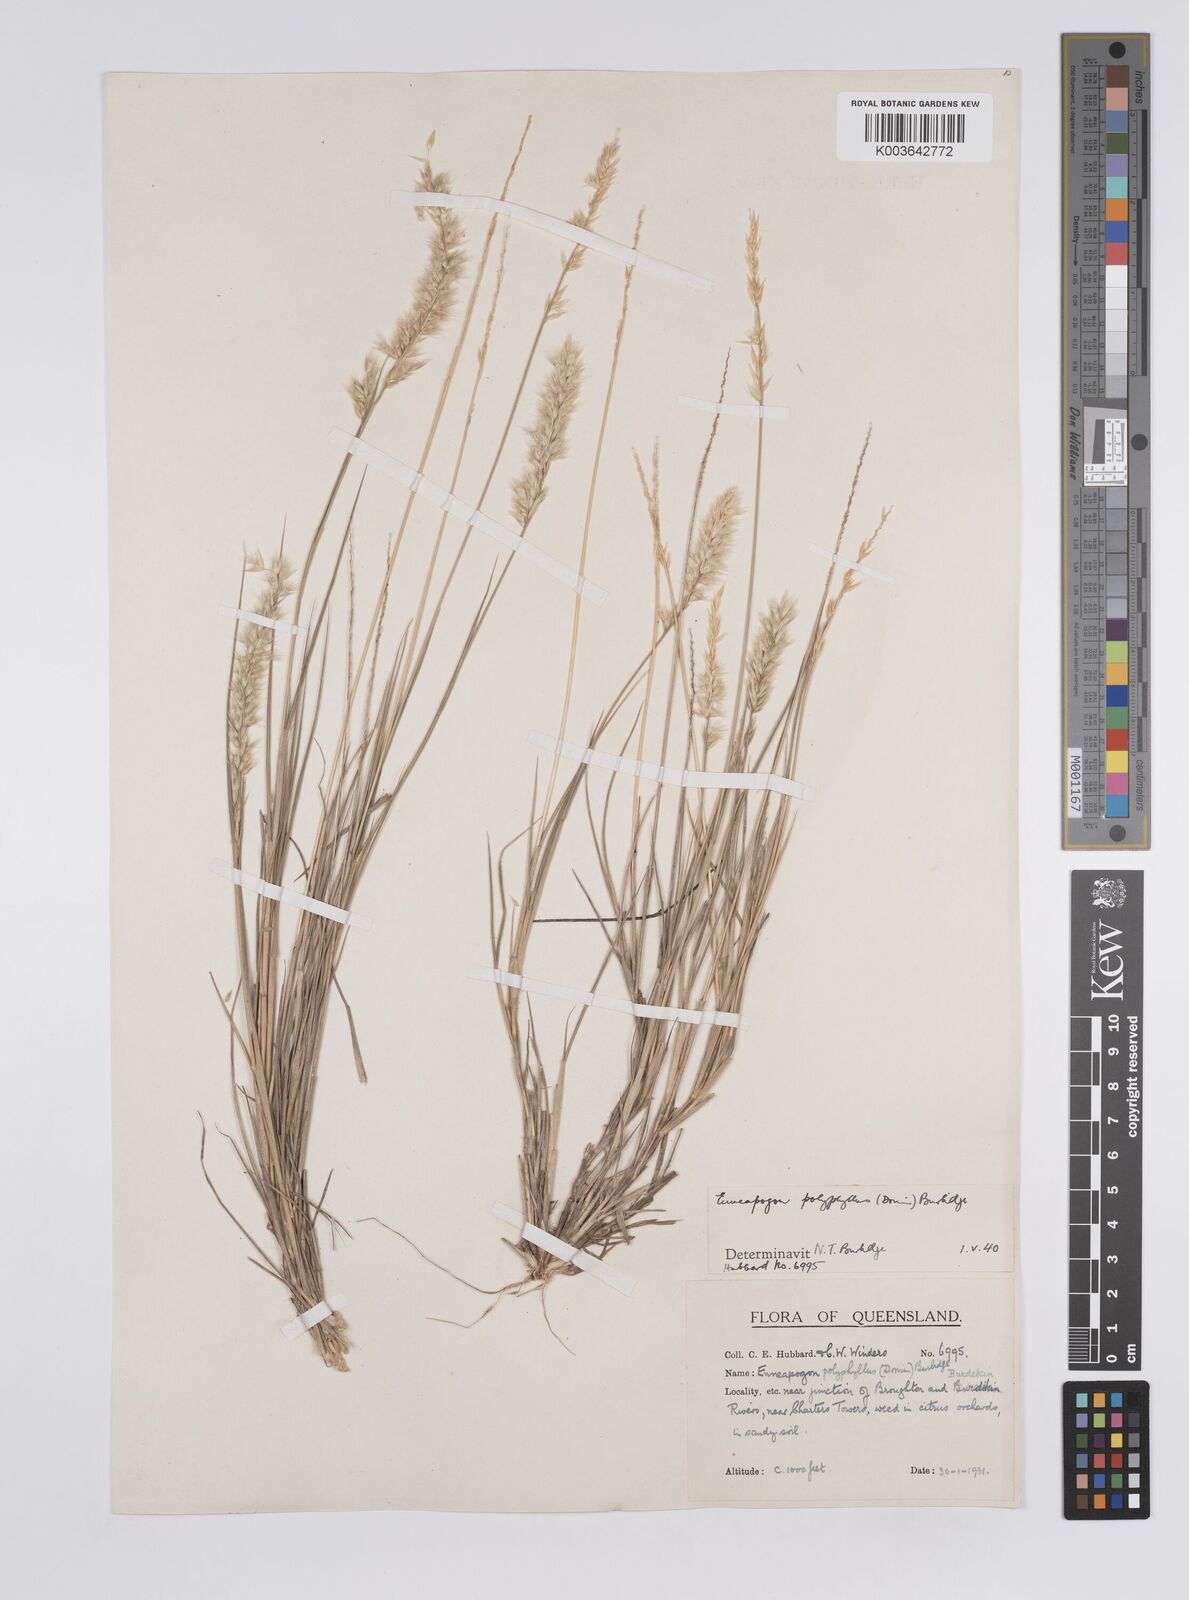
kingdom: Plantae
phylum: Tracheophyta
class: Liliopsida
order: Poales
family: Poaceae
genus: Enneapogon
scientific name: Enneapogon polyphyllus
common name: Leafy nineawn
